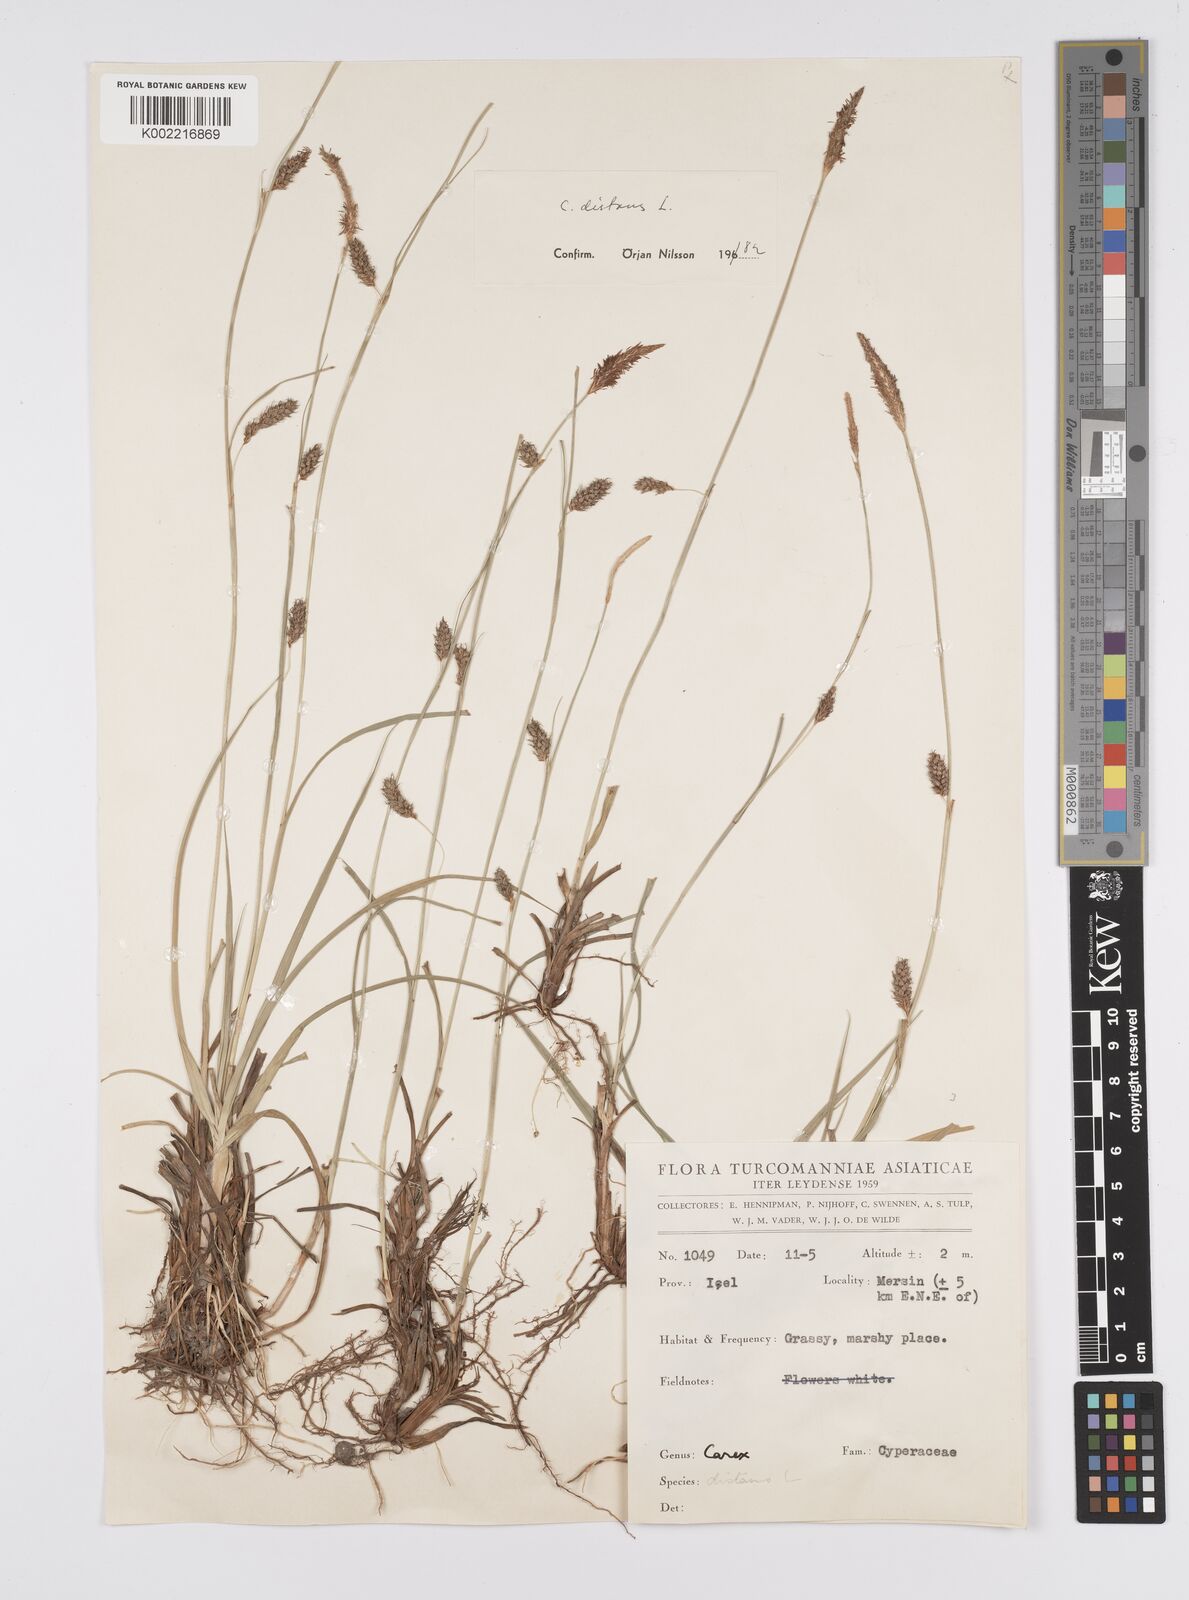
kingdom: Plantae
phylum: Tracheophyta
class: Liliopsida
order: Poales
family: Cyperaceae
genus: Carex
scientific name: Carex distans
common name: Distant sedge
